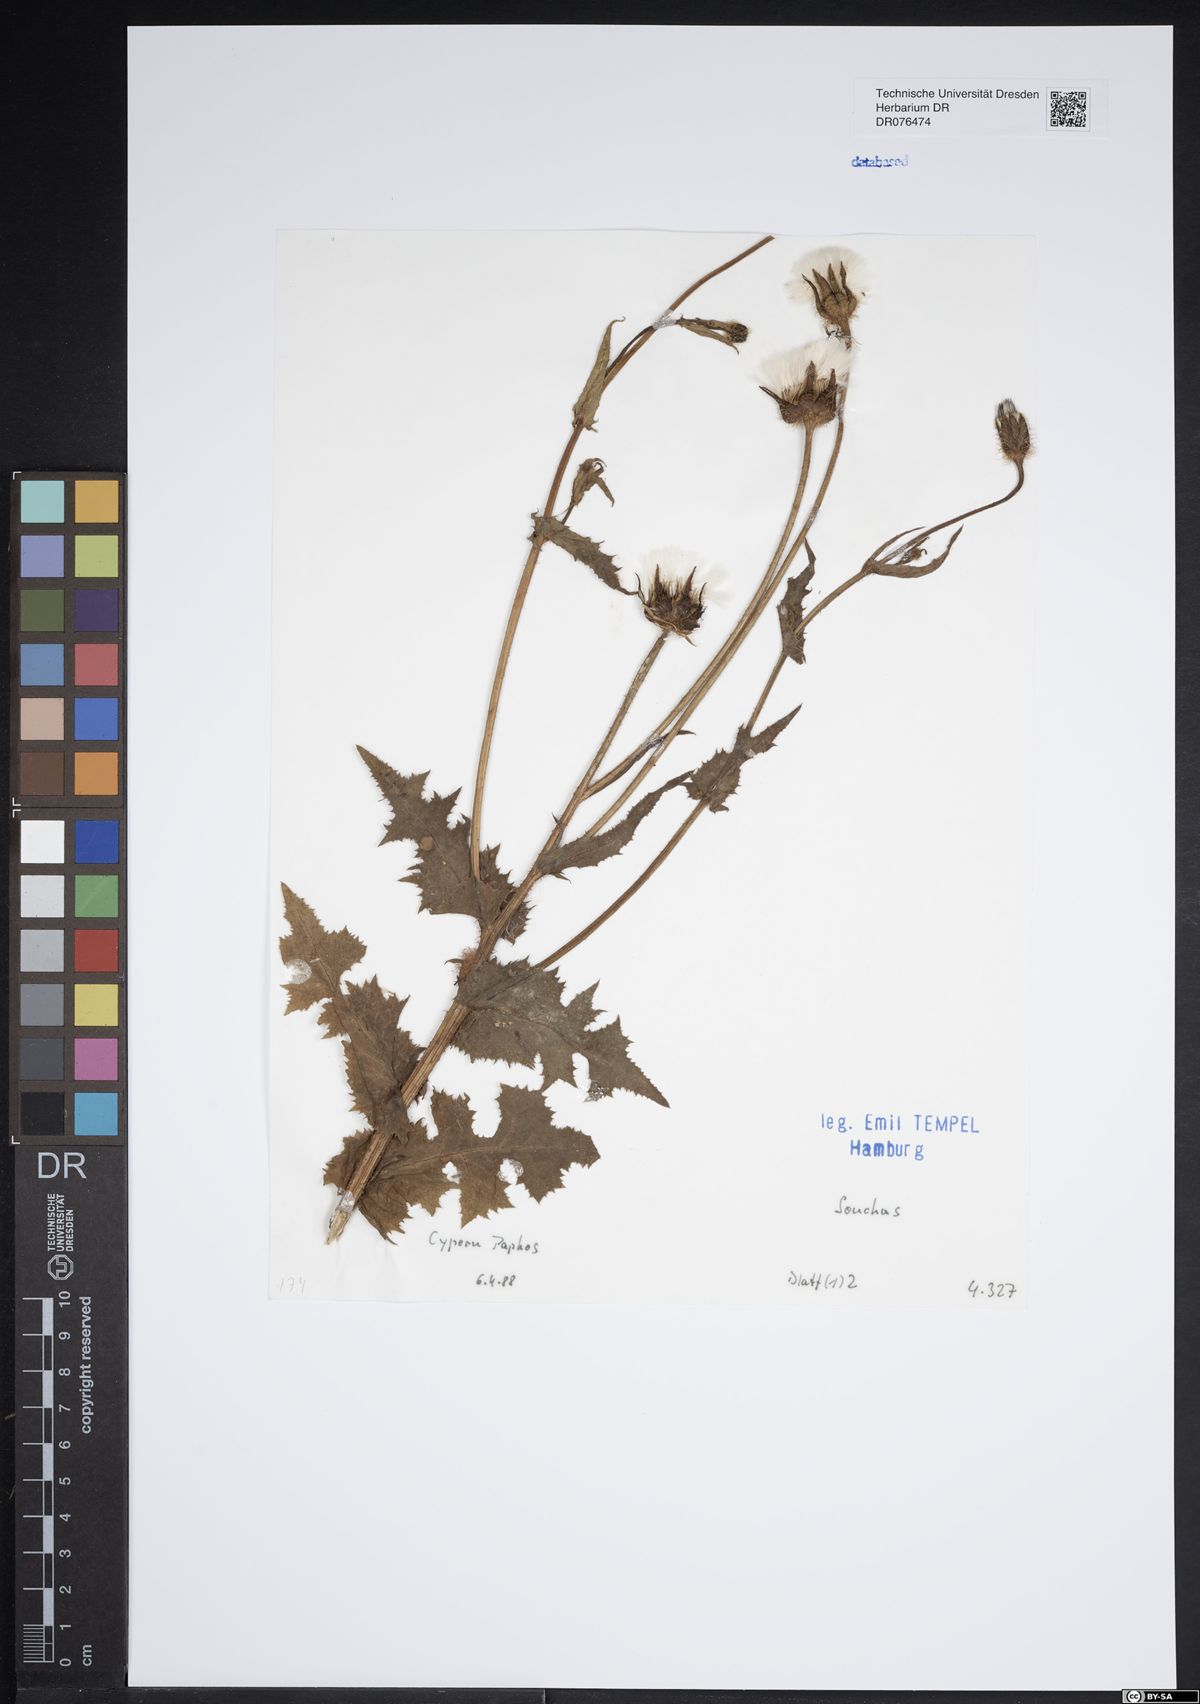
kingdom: Plantae
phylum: Tracheophyta
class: Magnoliopsida
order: Asterales
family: Asteraceae
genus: Sonchus
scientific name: Sonchus
